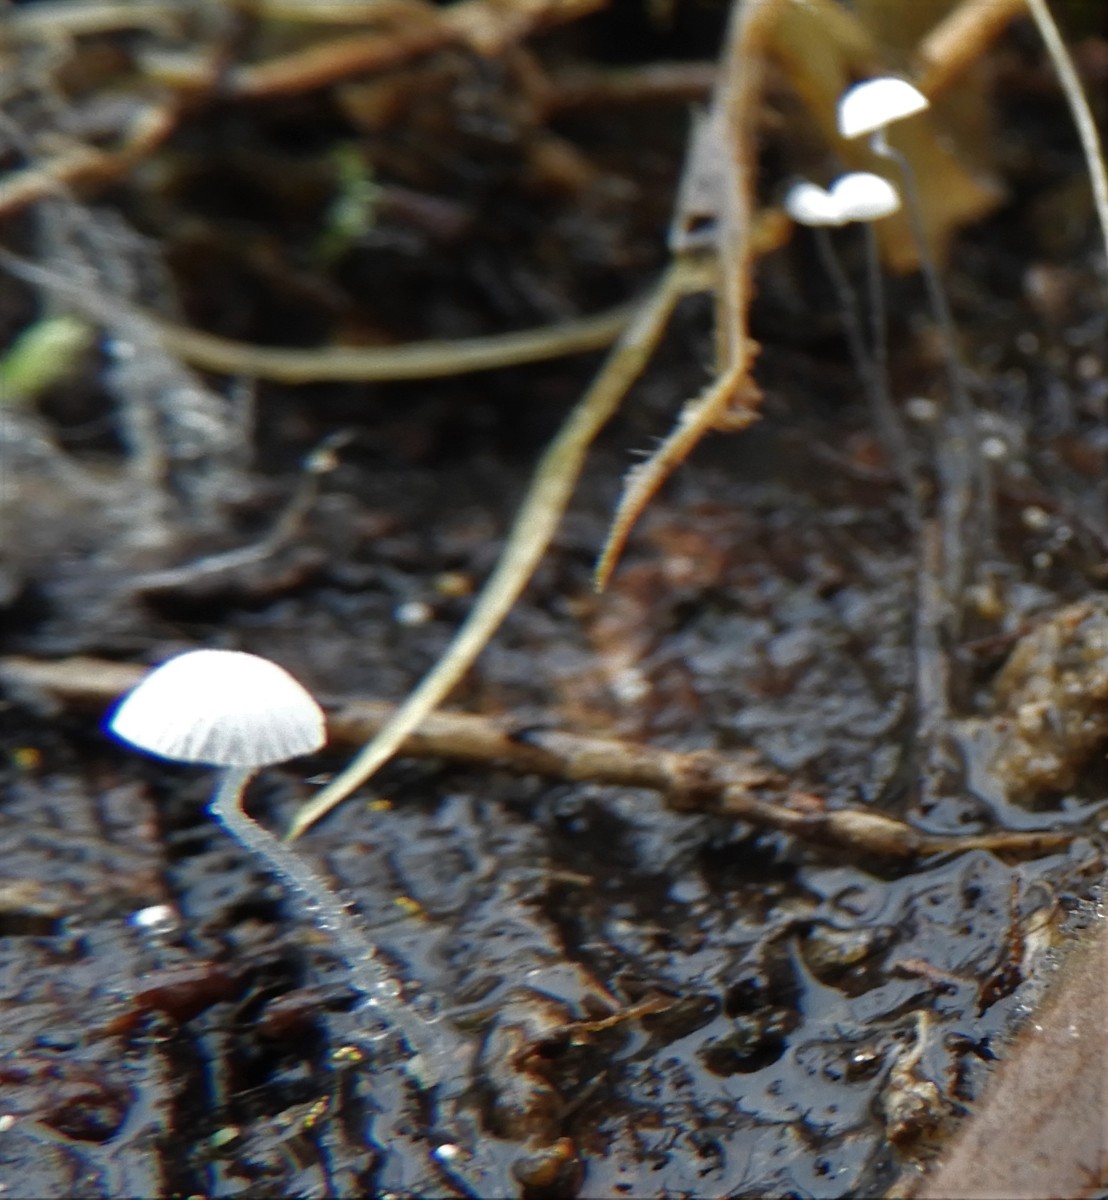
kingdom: Fungi
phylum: Basidiomycota
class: Agaricomycetes
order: Agaricales
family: Mycenaceae
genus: Mycena
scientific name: Mycena tenerrima
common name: pudret huesvamp
